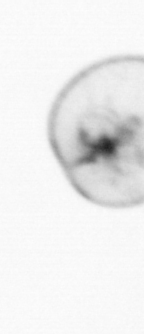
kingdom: Chromista
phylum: Myzozoa
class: Dinophyceae
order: Noctilucales
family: Noctilucaceae
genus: Noctiluca
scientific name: Noctiluca scintillans
